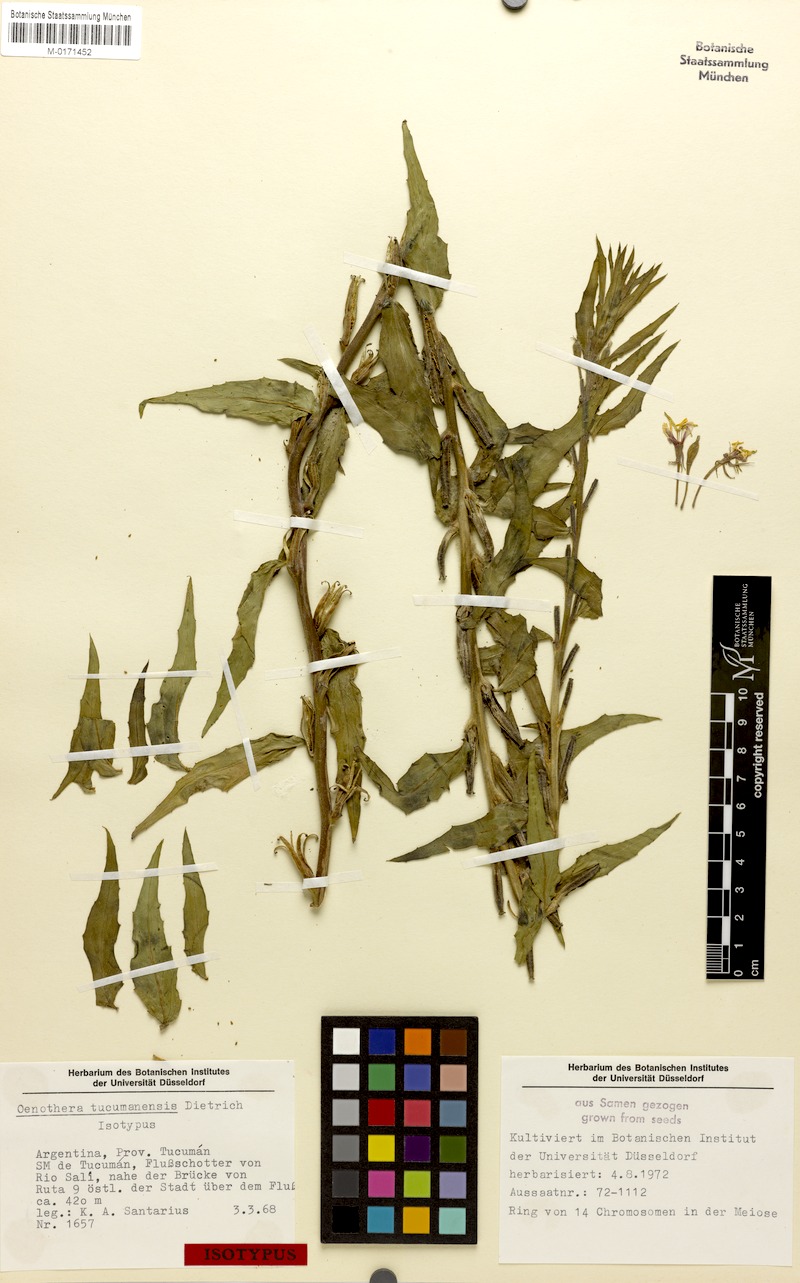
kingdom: Plantae
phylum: Tracheophyta
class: Magnoliopsida
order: Myrtales
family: Onagraceae
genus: Oenothera
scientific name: Oenothera tucumanensis
